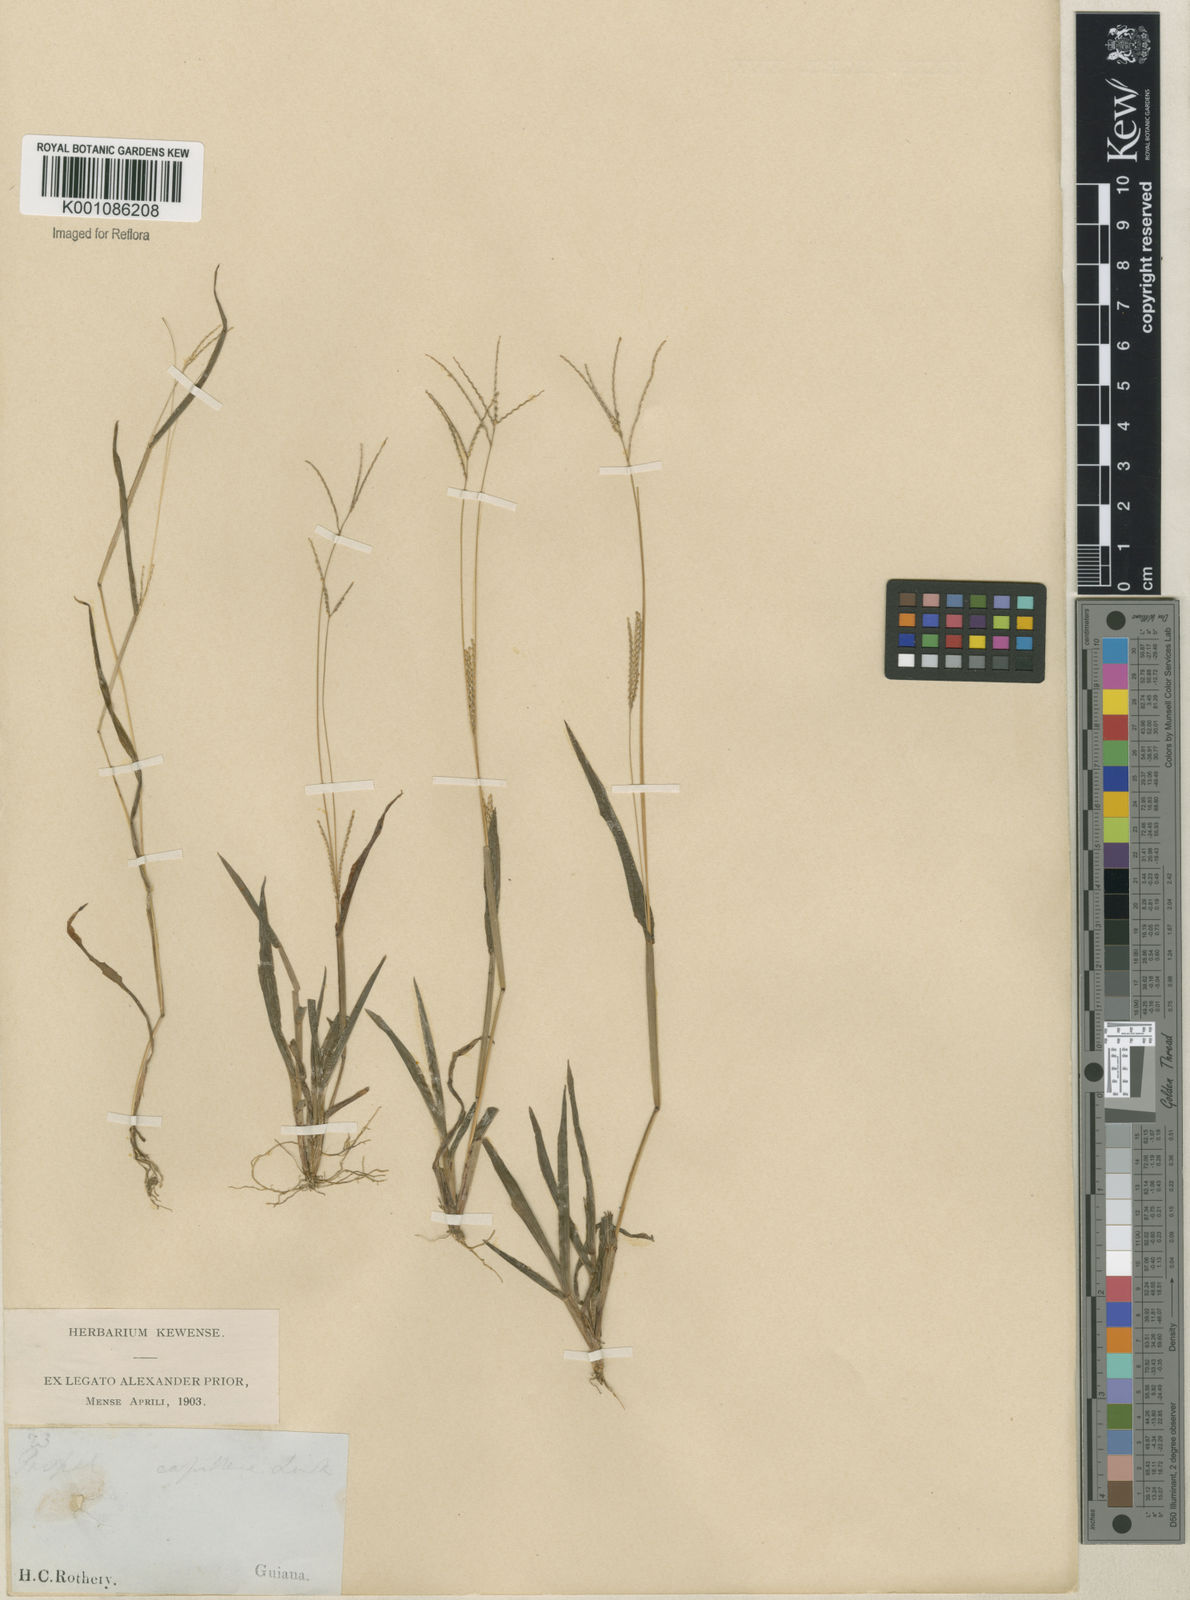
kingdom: Plantae
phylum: Tracheophyta
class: Liliopsida
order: Poales
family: Poaceae
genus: Axonopus
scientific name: Axonopus
